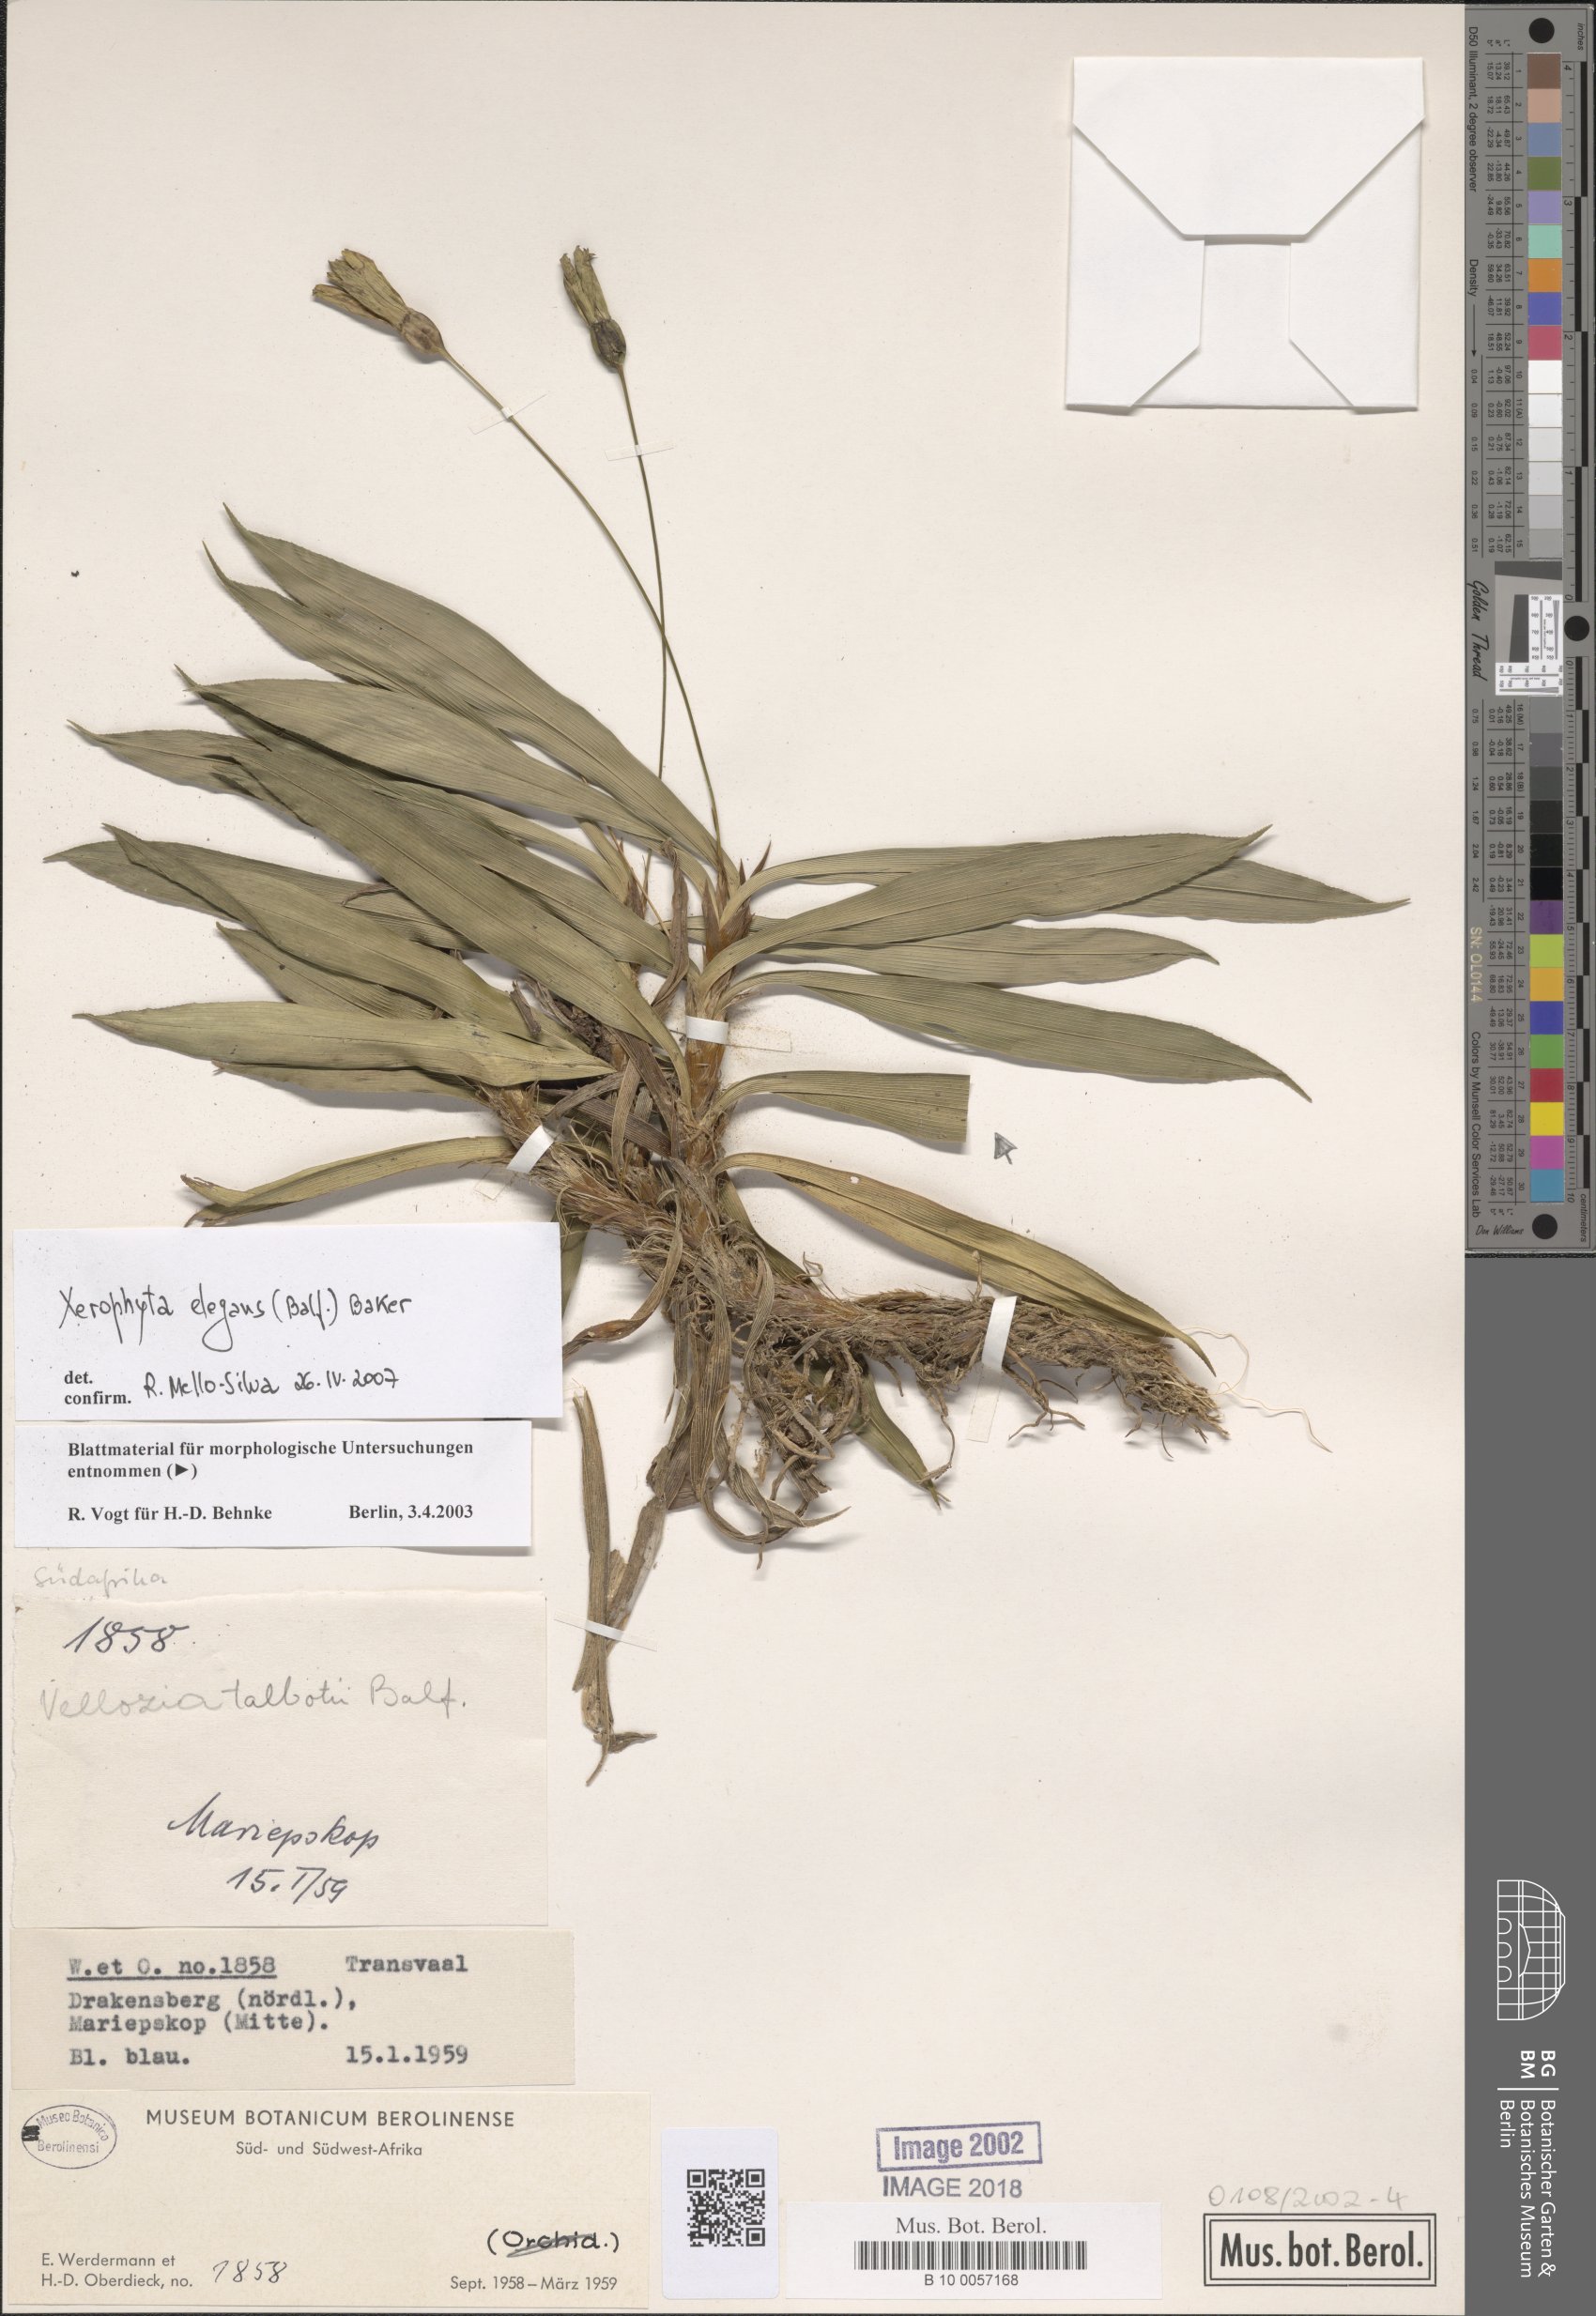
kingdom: Plantae
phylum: Tracheophyta
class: Liliopsida
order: Pandanales
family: Velloziaceae
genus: Xerophyta
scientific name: Xerophyta elegans
